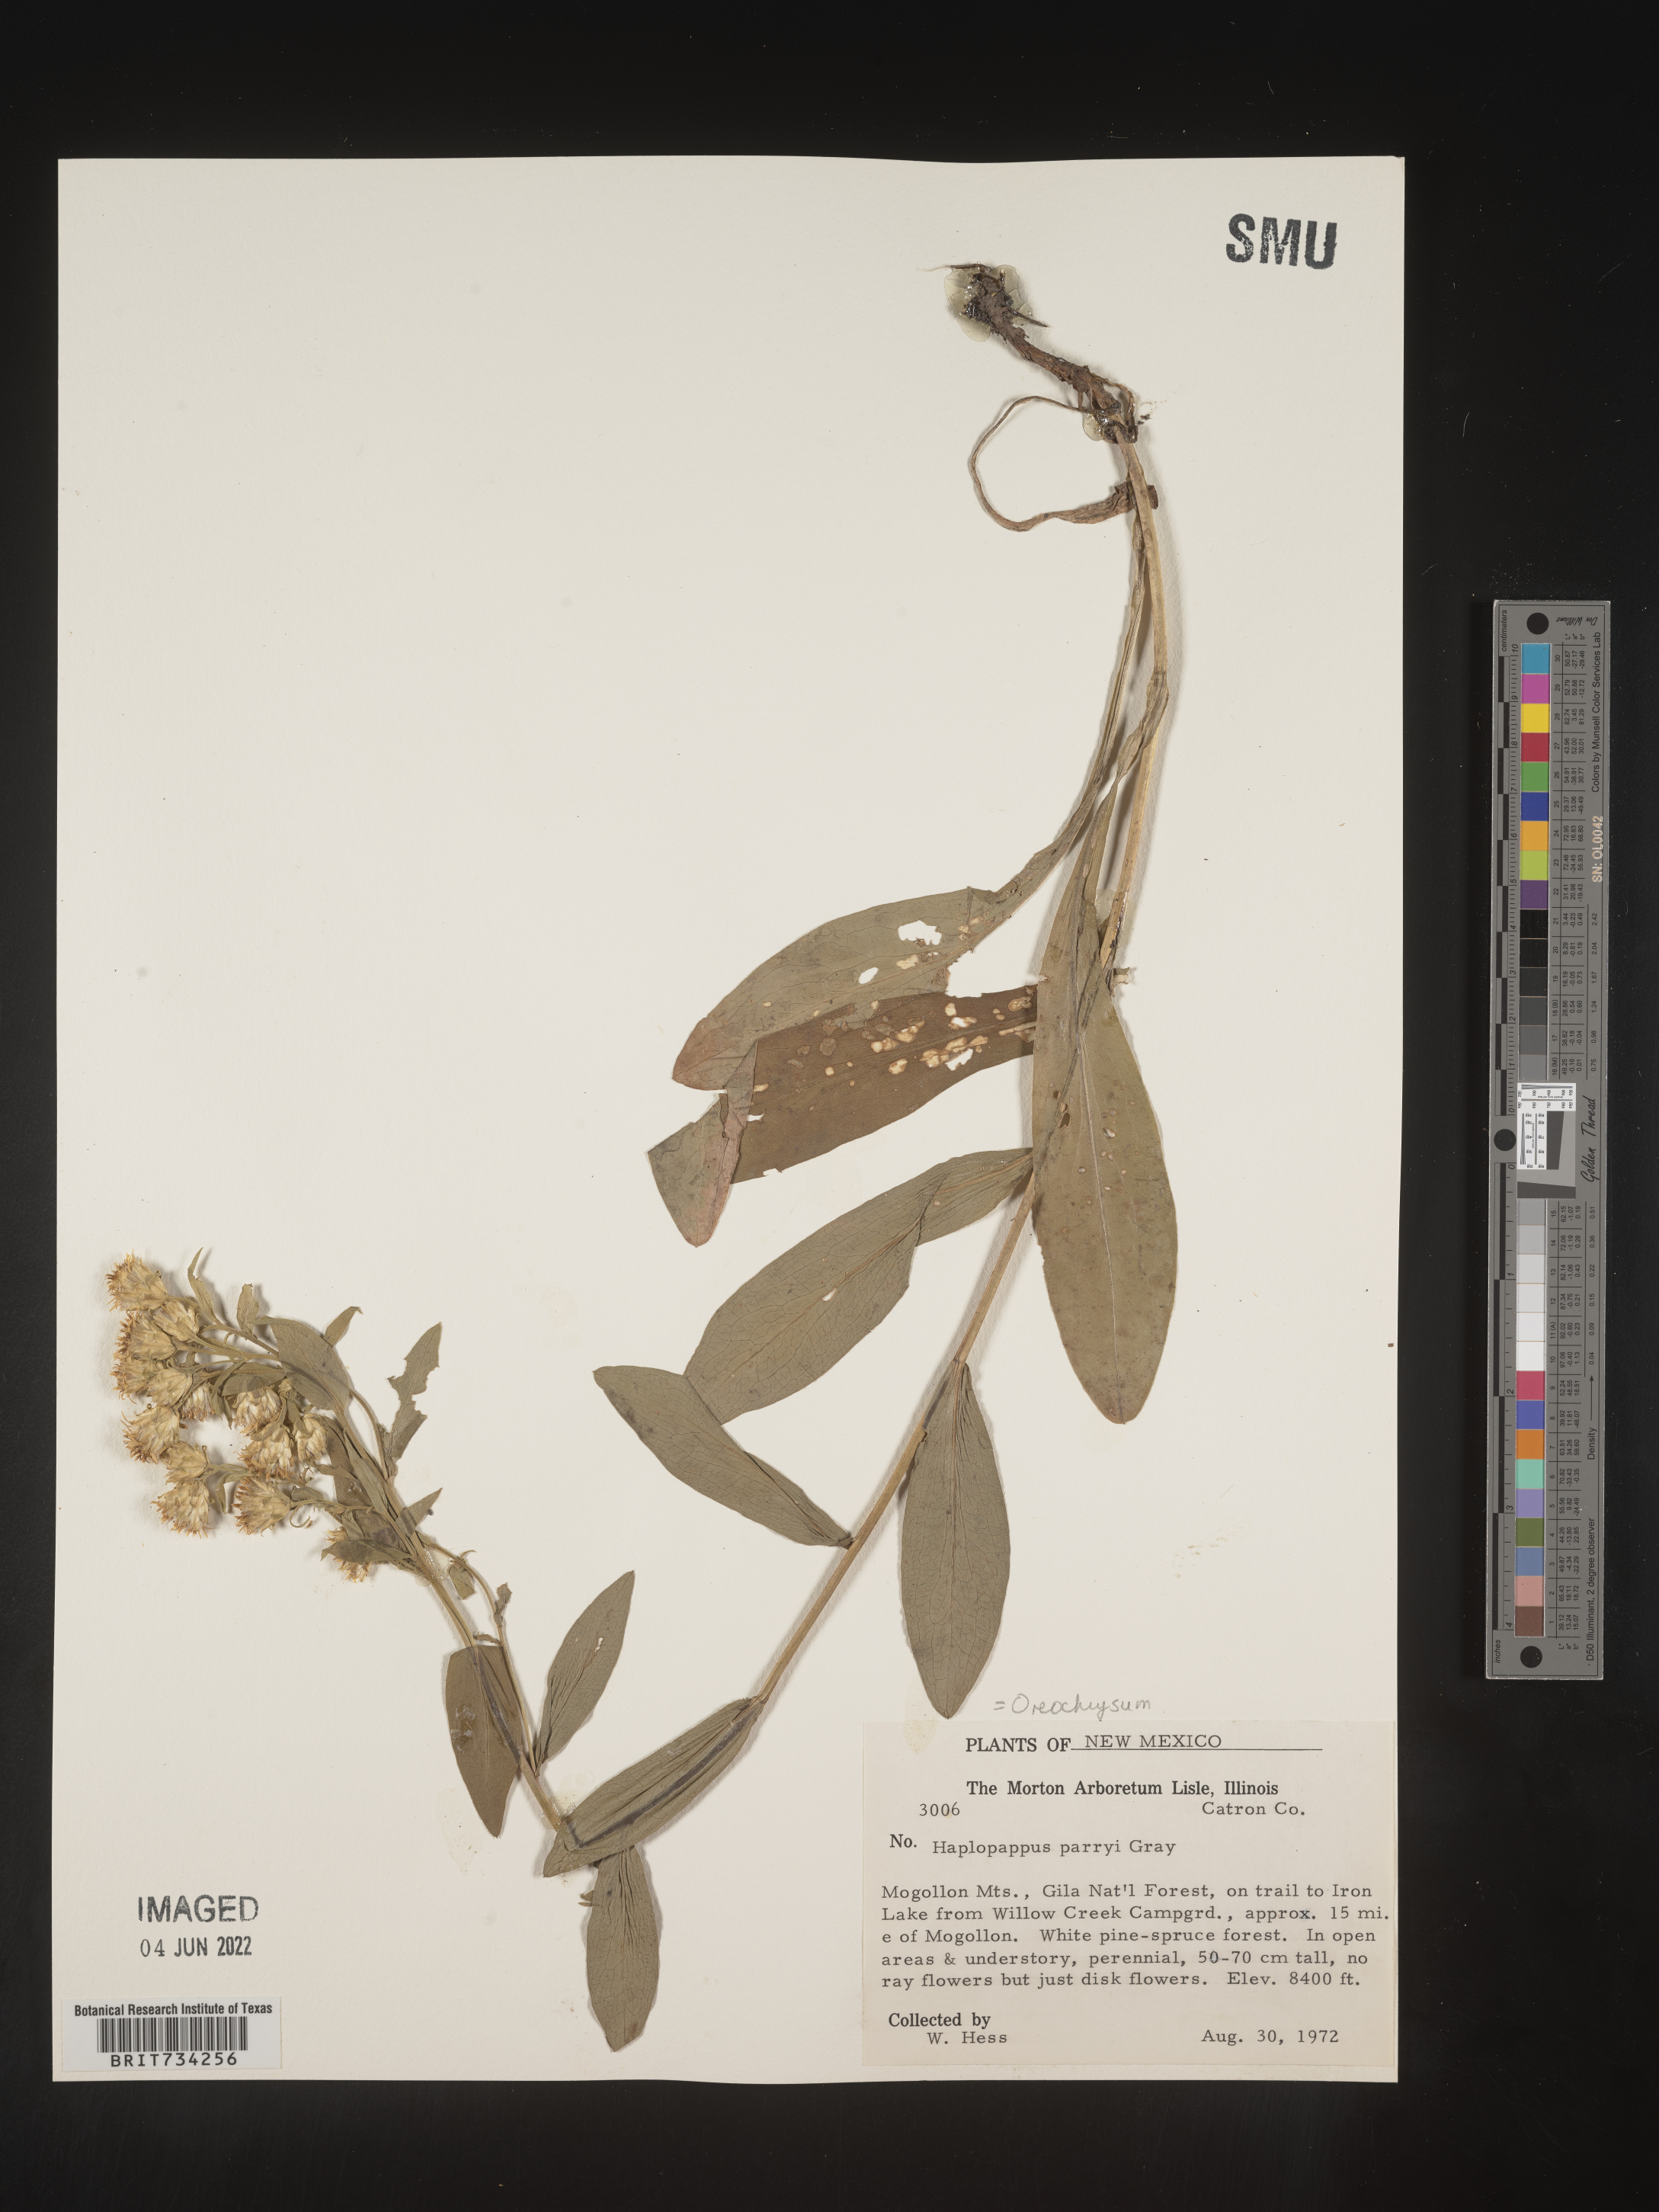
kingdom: Plantae
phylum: Tracheophyta
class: Magnoliopsida
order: Asterales
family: Asteraceae
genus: Oreochrysum
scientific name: Oreochrysum parryi
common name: Parry's goldenweed
